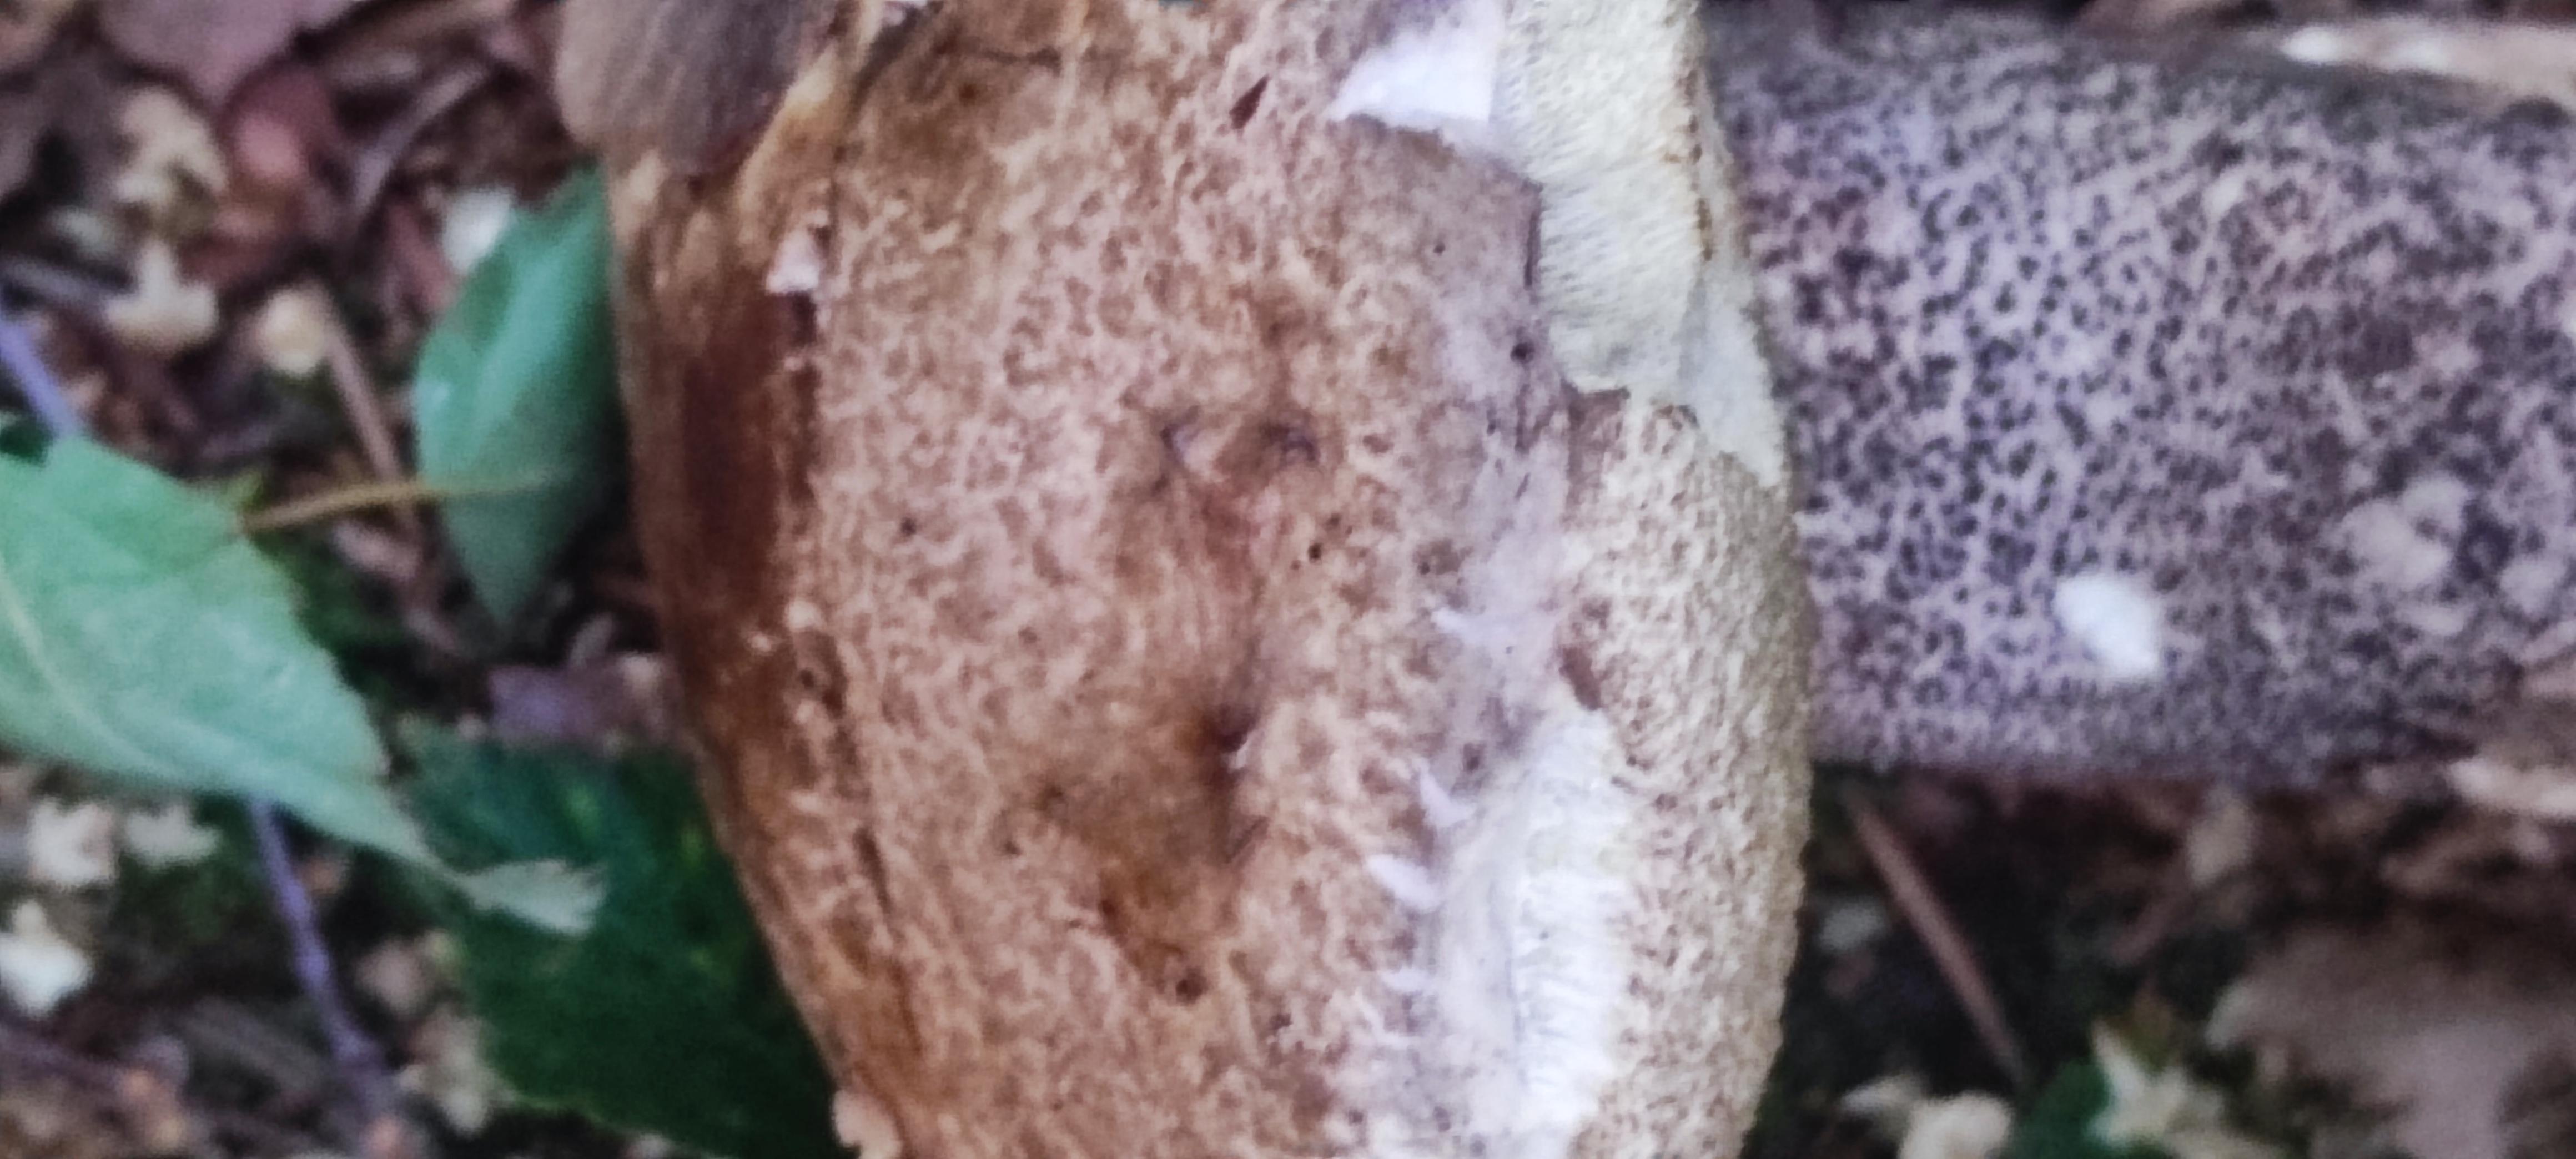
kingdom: Fungi
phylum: Basidiomycota
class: Agaricomycetes
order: Boletales
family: Boletaceae
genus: Leccinum
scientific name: Leccinum
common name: skælrørhat
